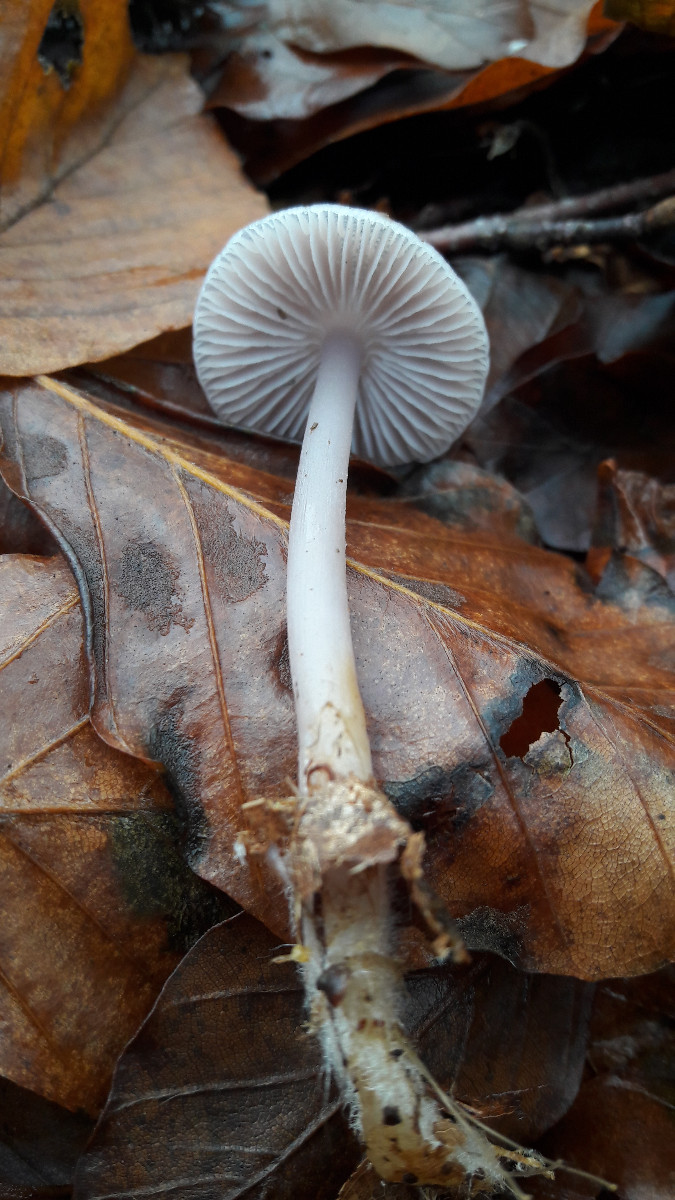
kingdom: Fungi
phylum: Basidiomycota
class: Agaricomycetes
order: Agaricales
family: Mycenaceae
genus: Mycena
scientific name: Mycena rosea
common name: rosa huesvamp
